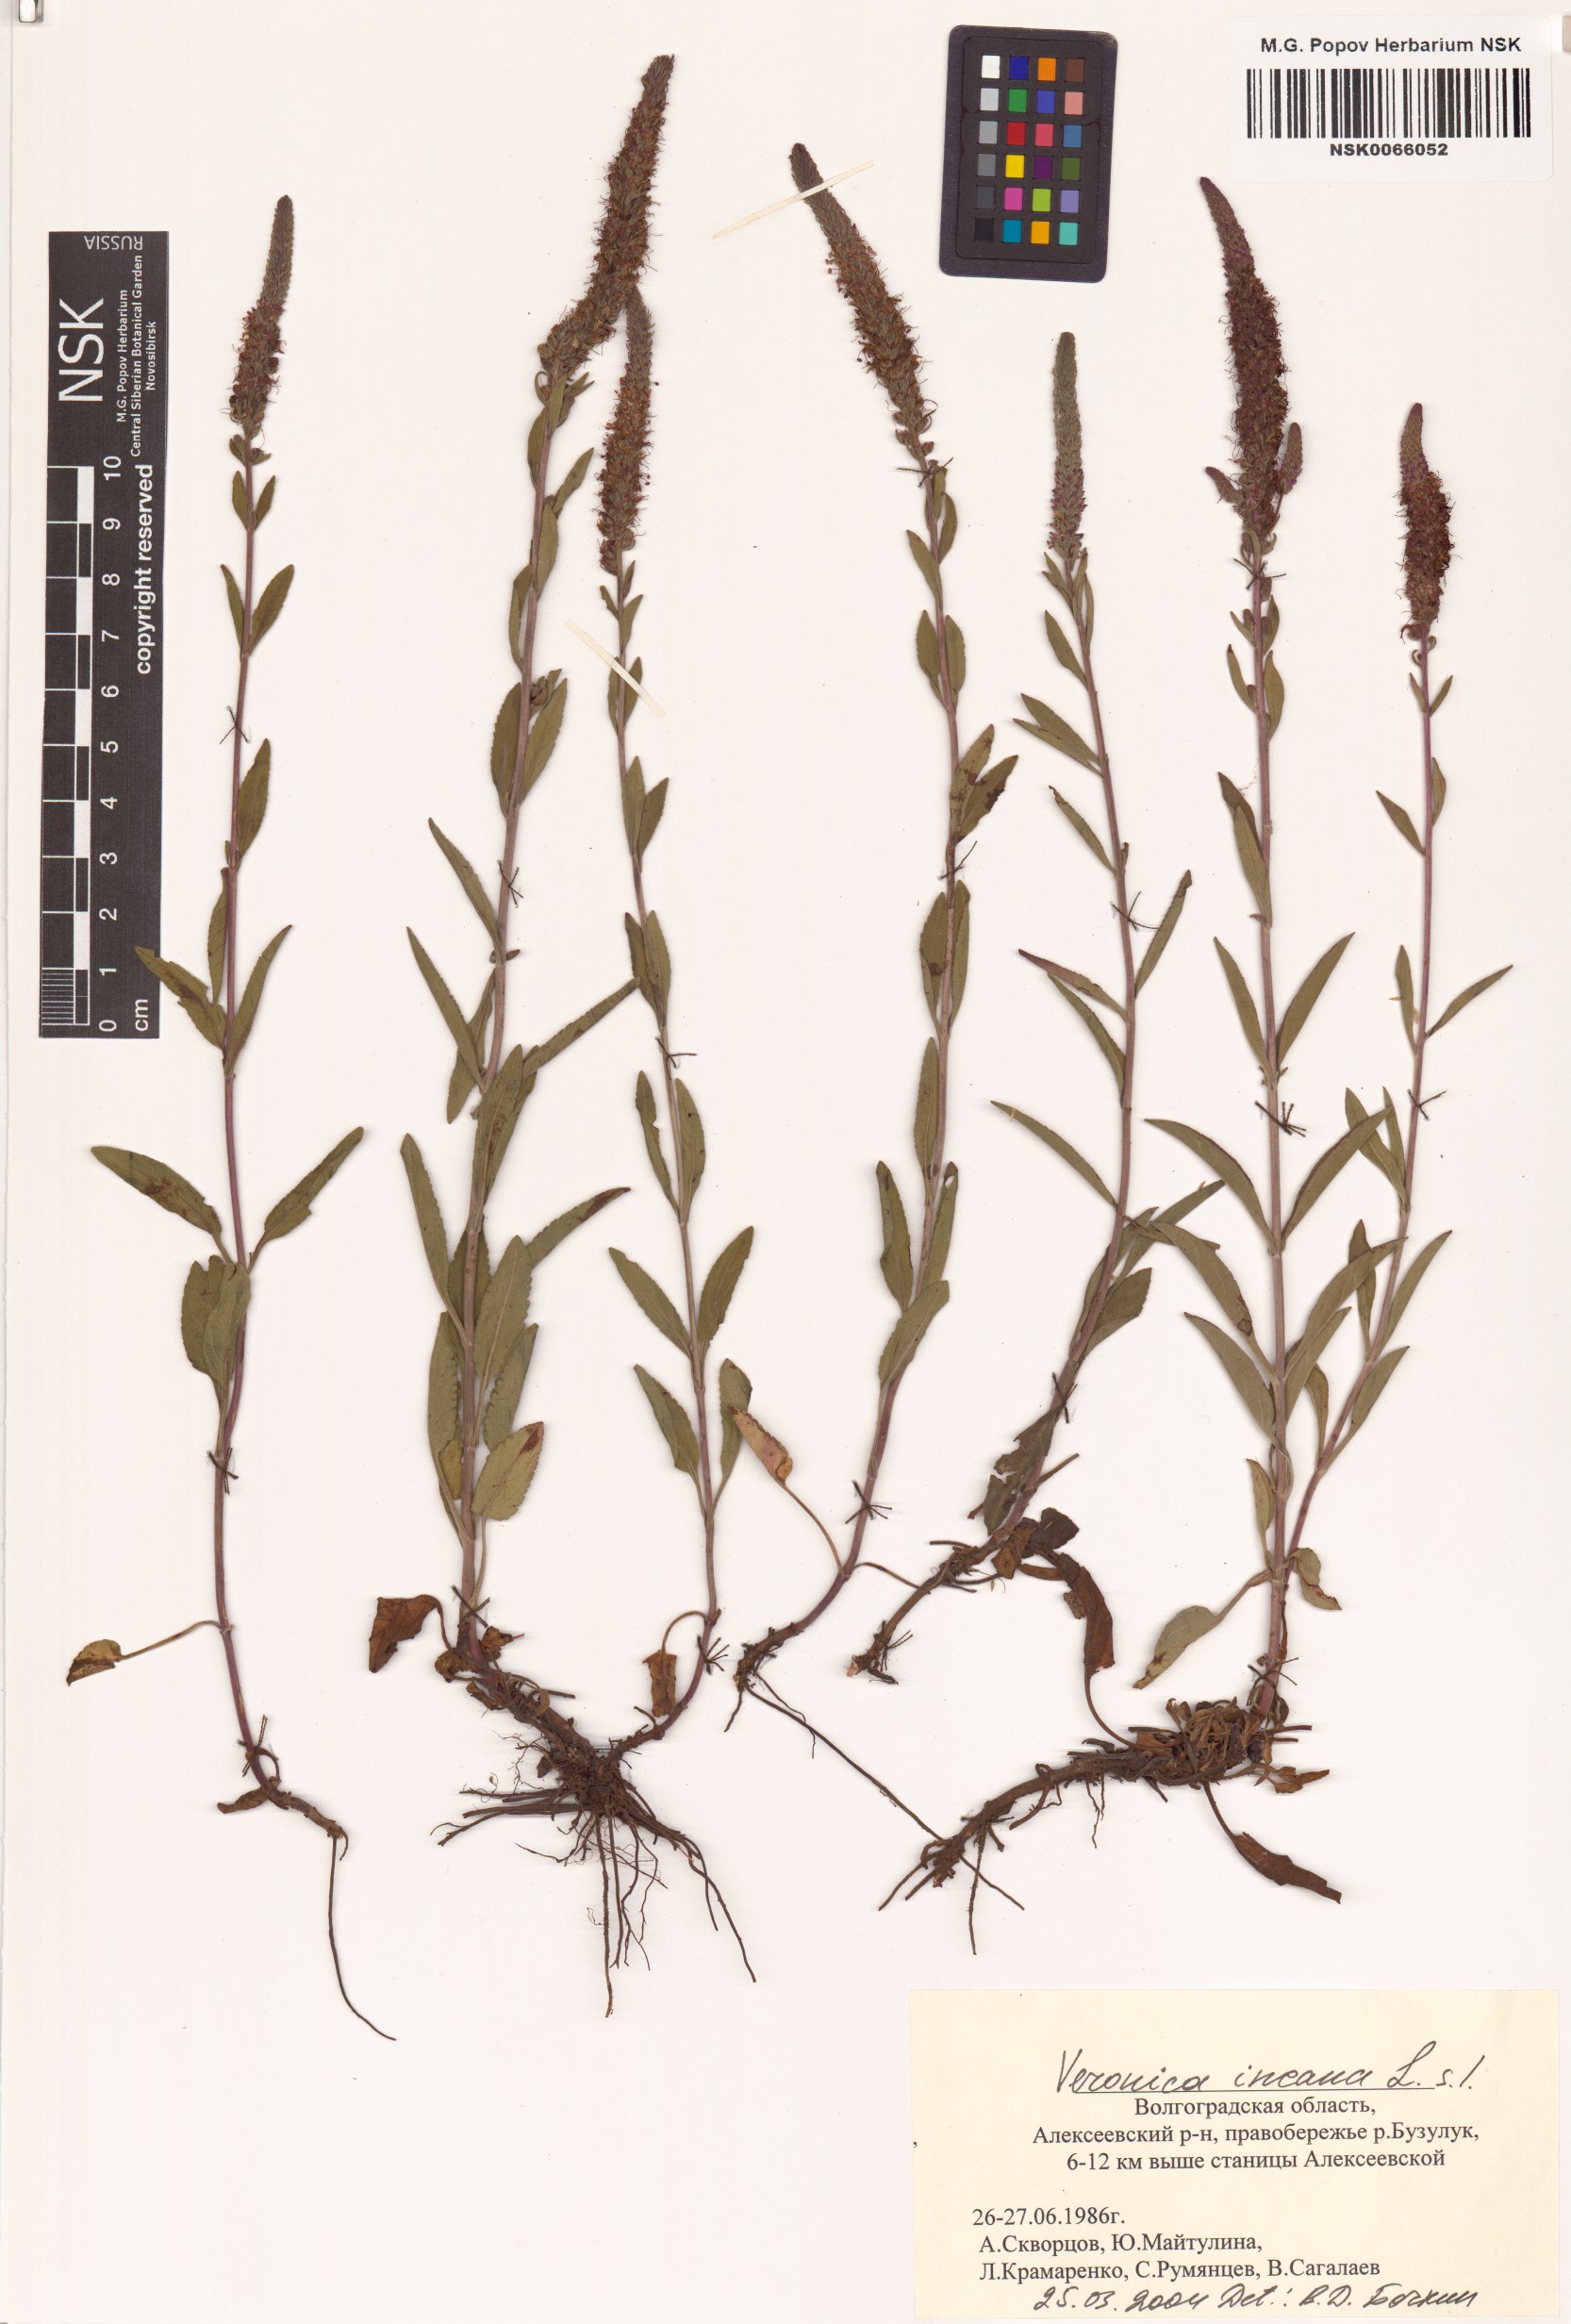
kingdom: Plantae
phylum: Tracheophyta
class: Magnoliopsida
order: Lamiales
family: Plantaginaceae
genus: Veronica
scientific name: Veronica incana
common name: Silver speedwell
